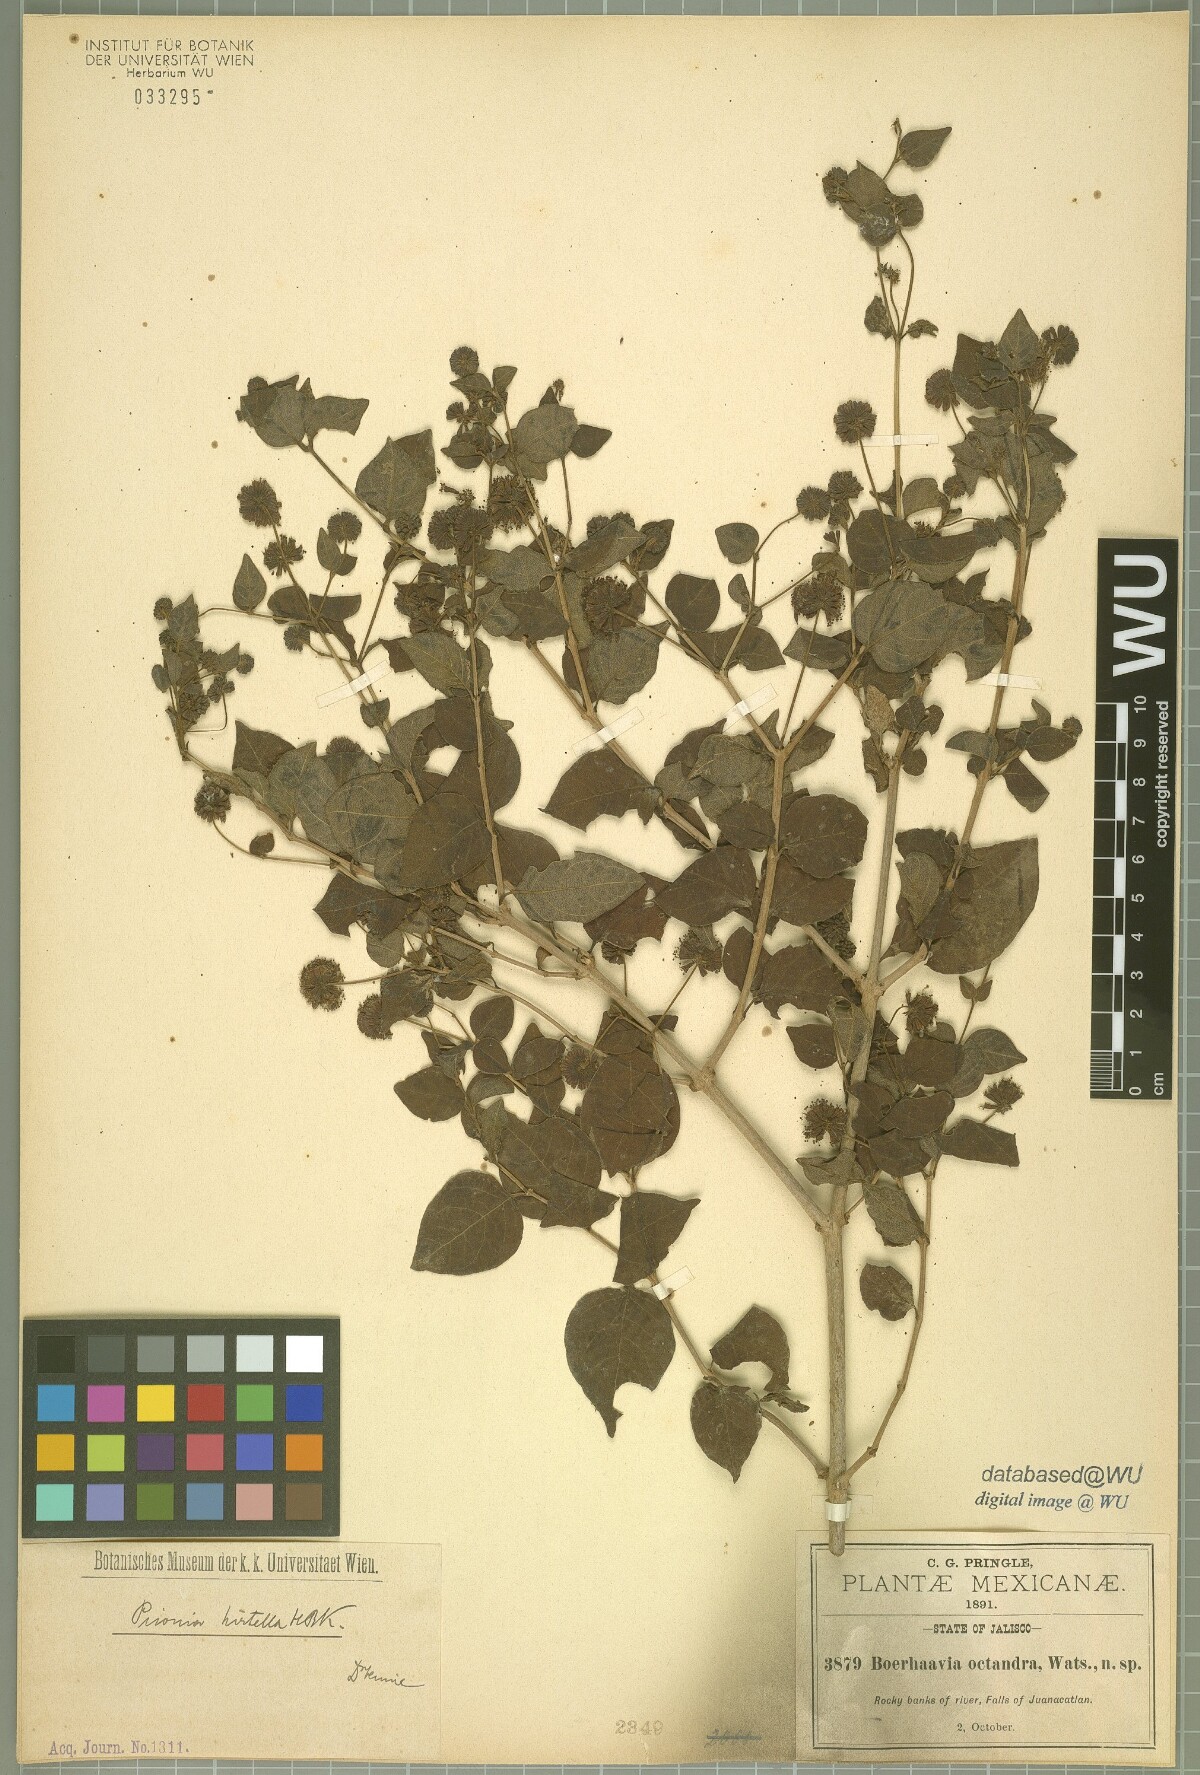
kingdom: Plantae
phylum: Tracheophyta
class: Magnoliopsida
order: Caryophyllales
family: Nyctaginaceae
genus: Pisoniella
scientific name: Pisoniella arborescens
